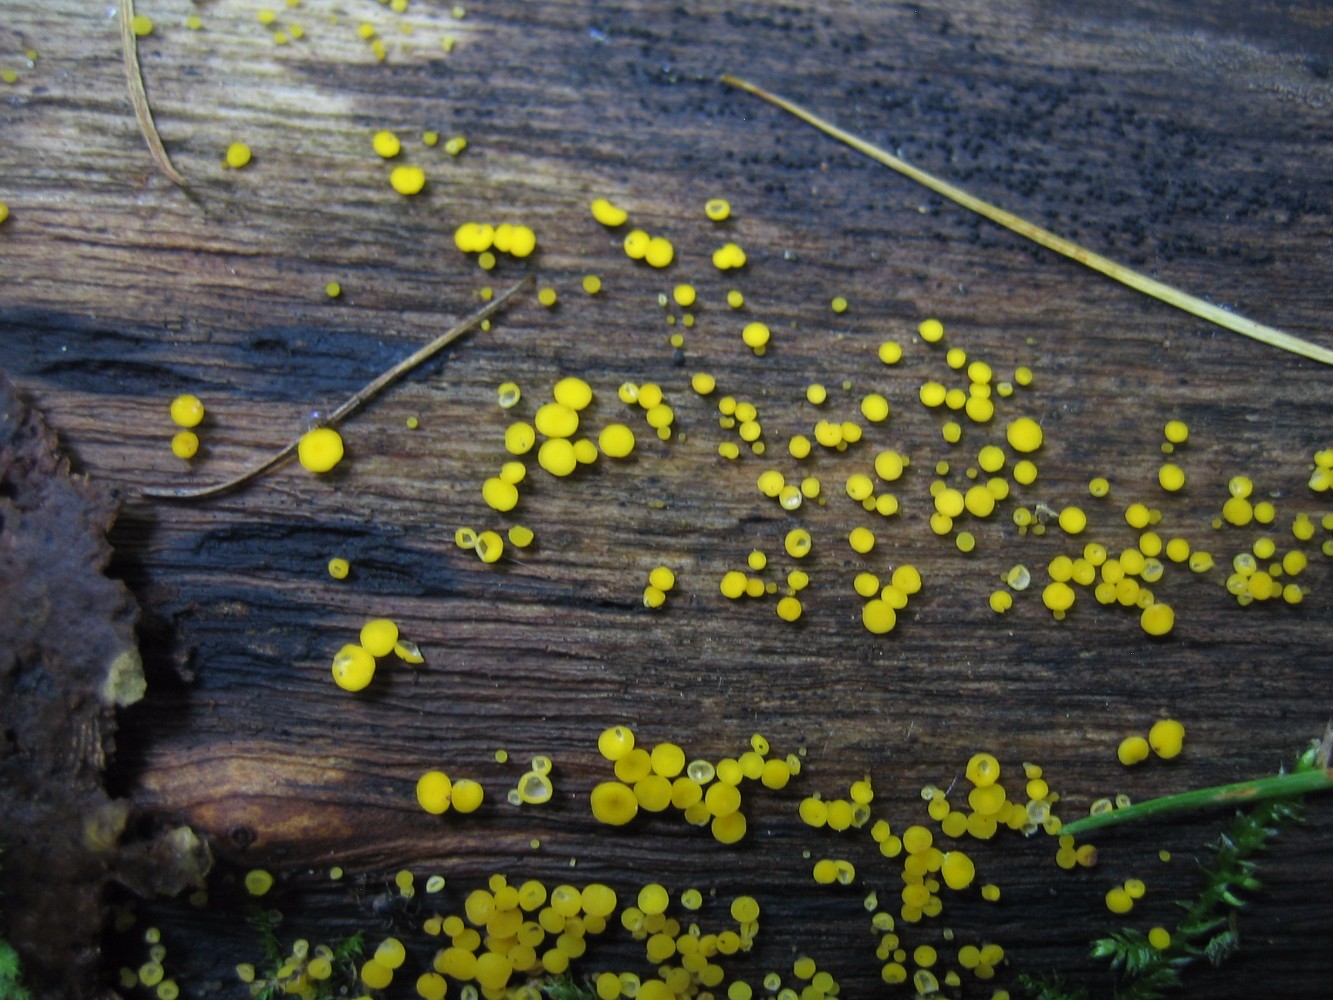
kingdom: Fungi
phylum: Ascomycota
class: Leotiomycetes
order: Helotiales
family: Pezizellaceae
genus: Calycina
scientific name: Calycina citrina
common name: almindelig gulskive
